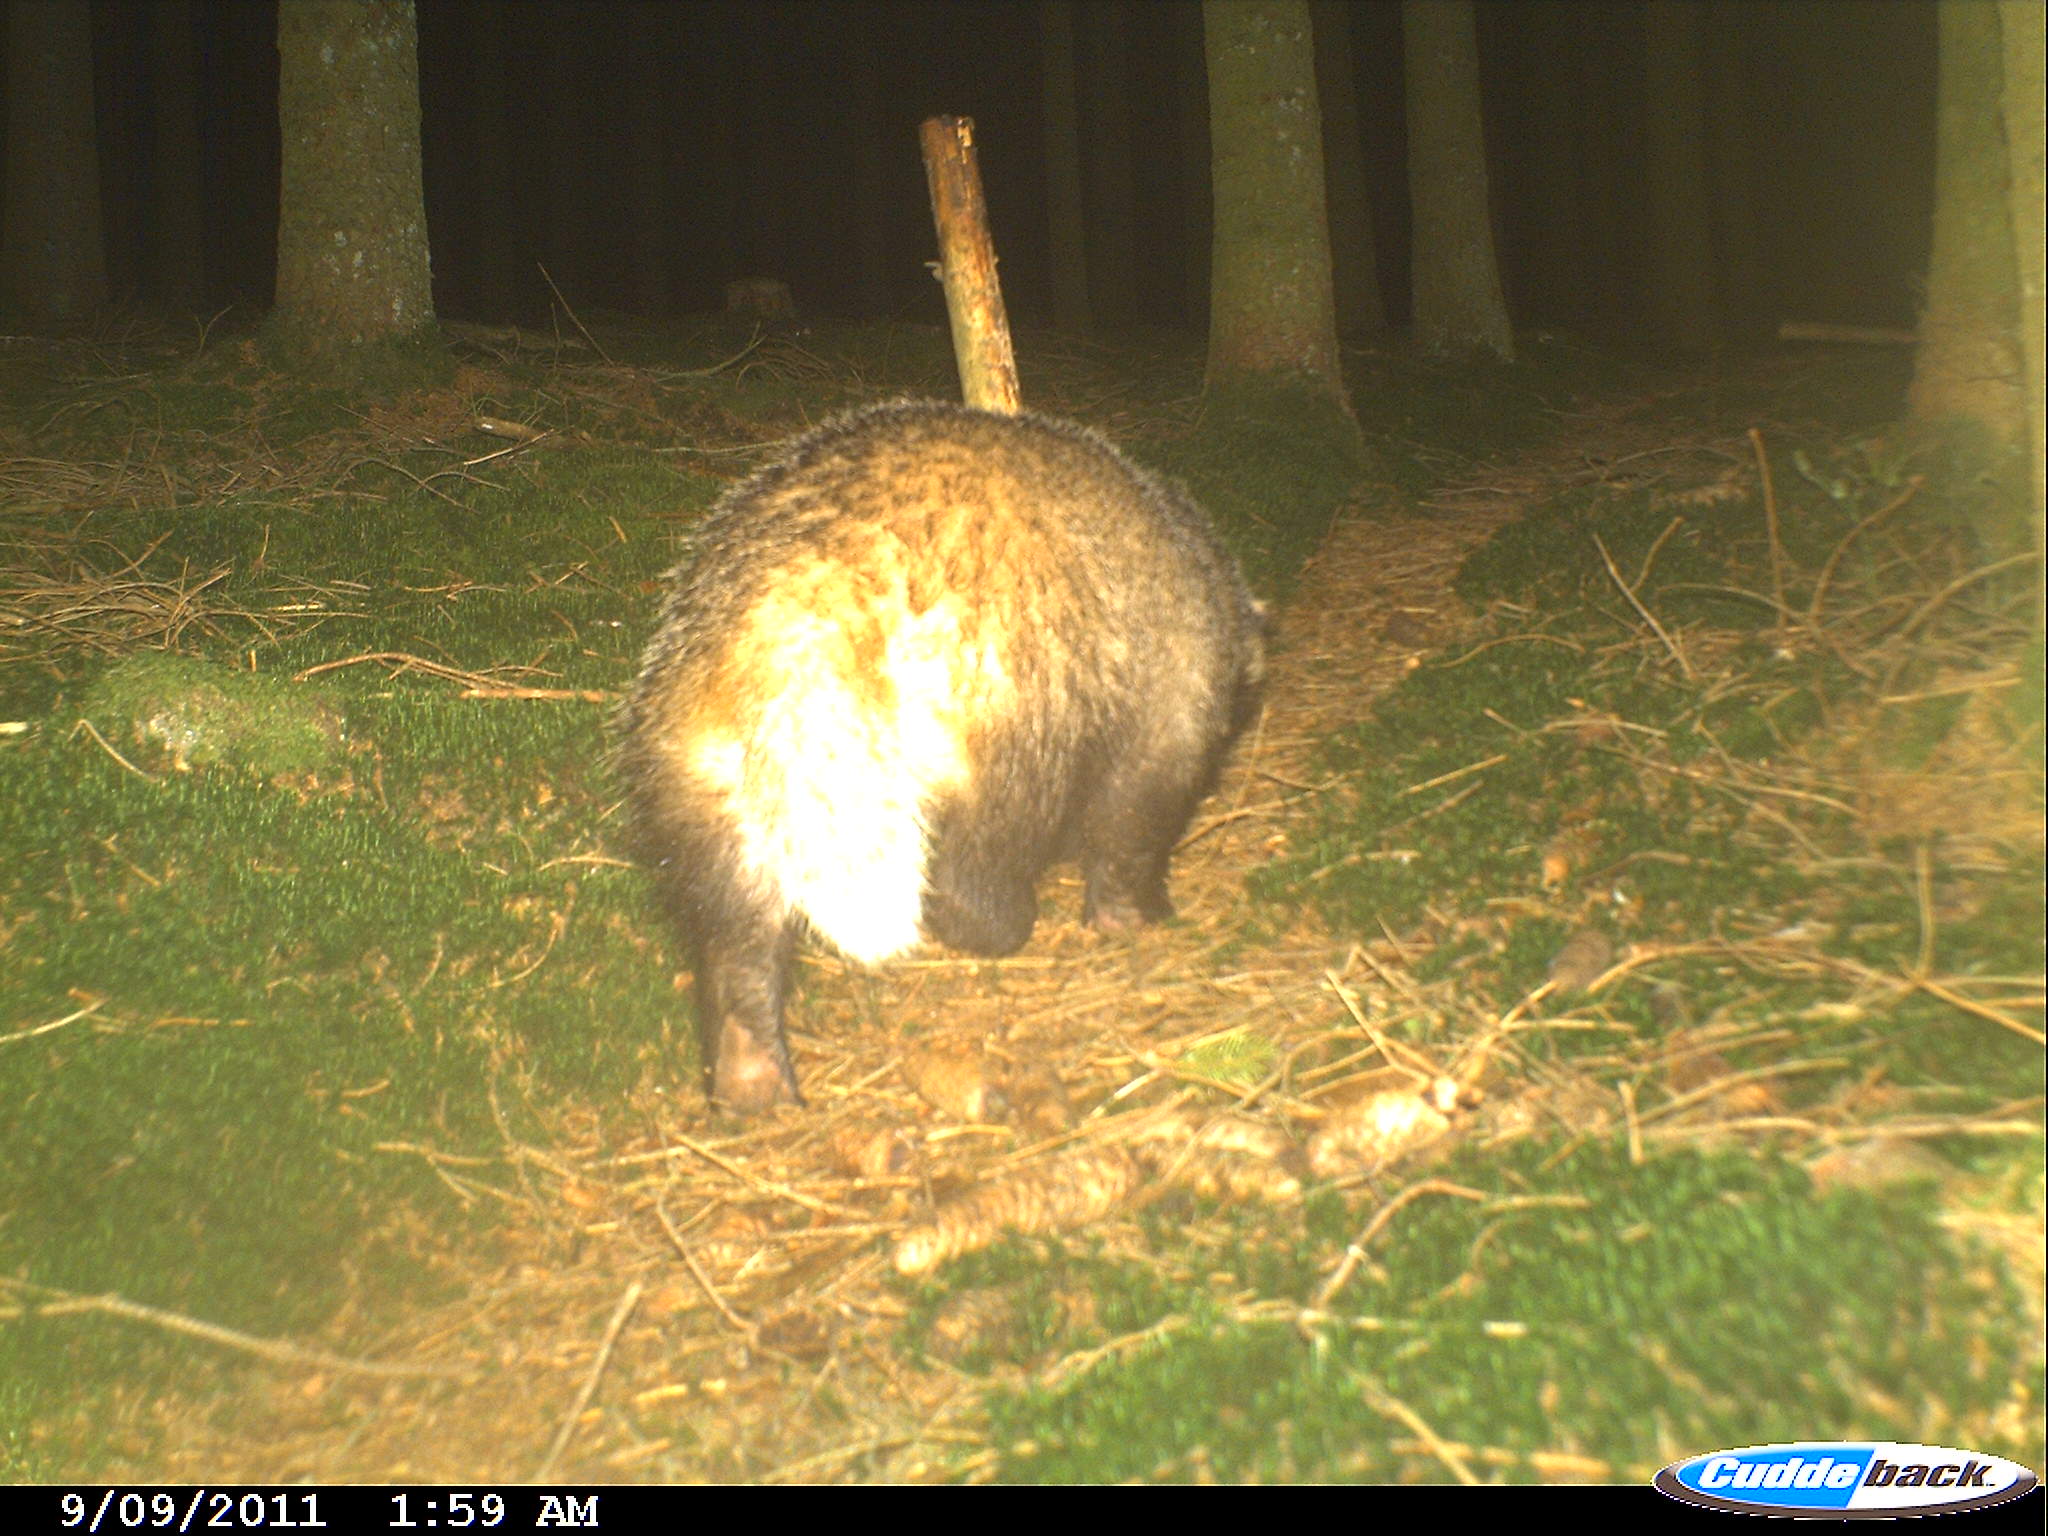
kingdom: Animalia
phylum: Chordata
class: Mammalia
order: Carnivora
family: Mustelidae
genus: Meles
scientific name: Meles meles
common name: Eurasian badger
